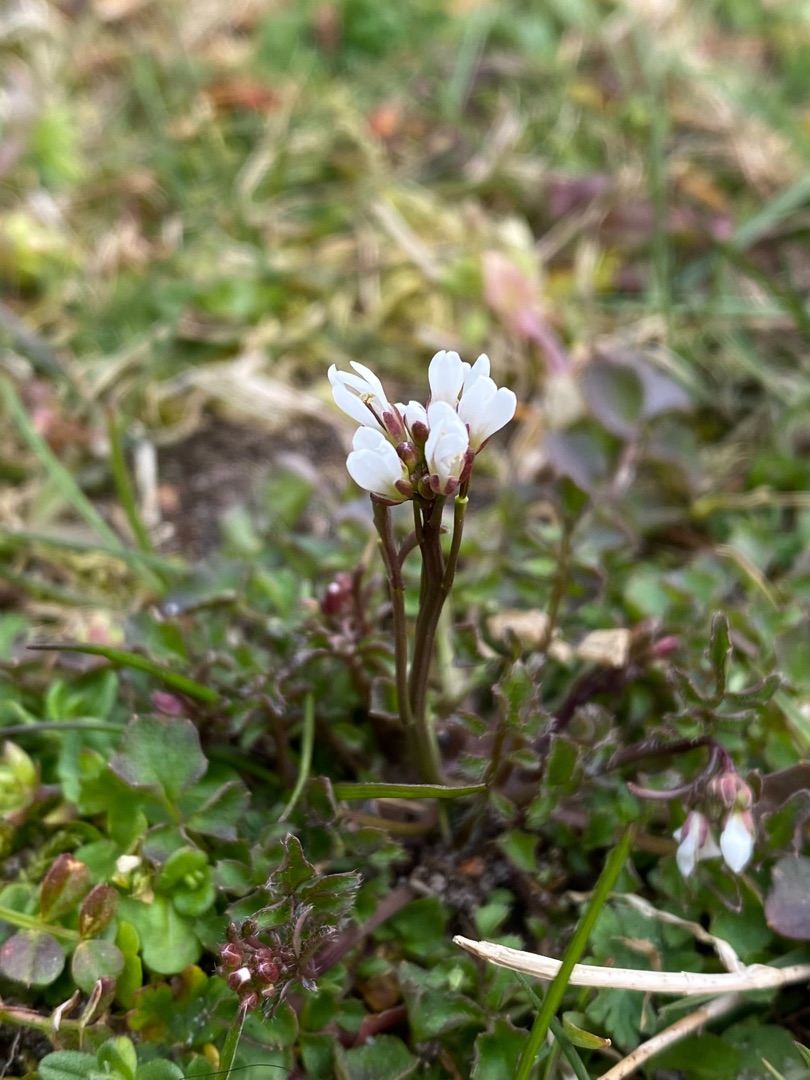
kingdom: Plantae
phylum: Tracheophyta
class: Magnoliopsida
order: Brassicales
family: Brassicaceae
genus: Cardamine
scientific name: Cardamine hirsuta
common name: Roset-springklap
